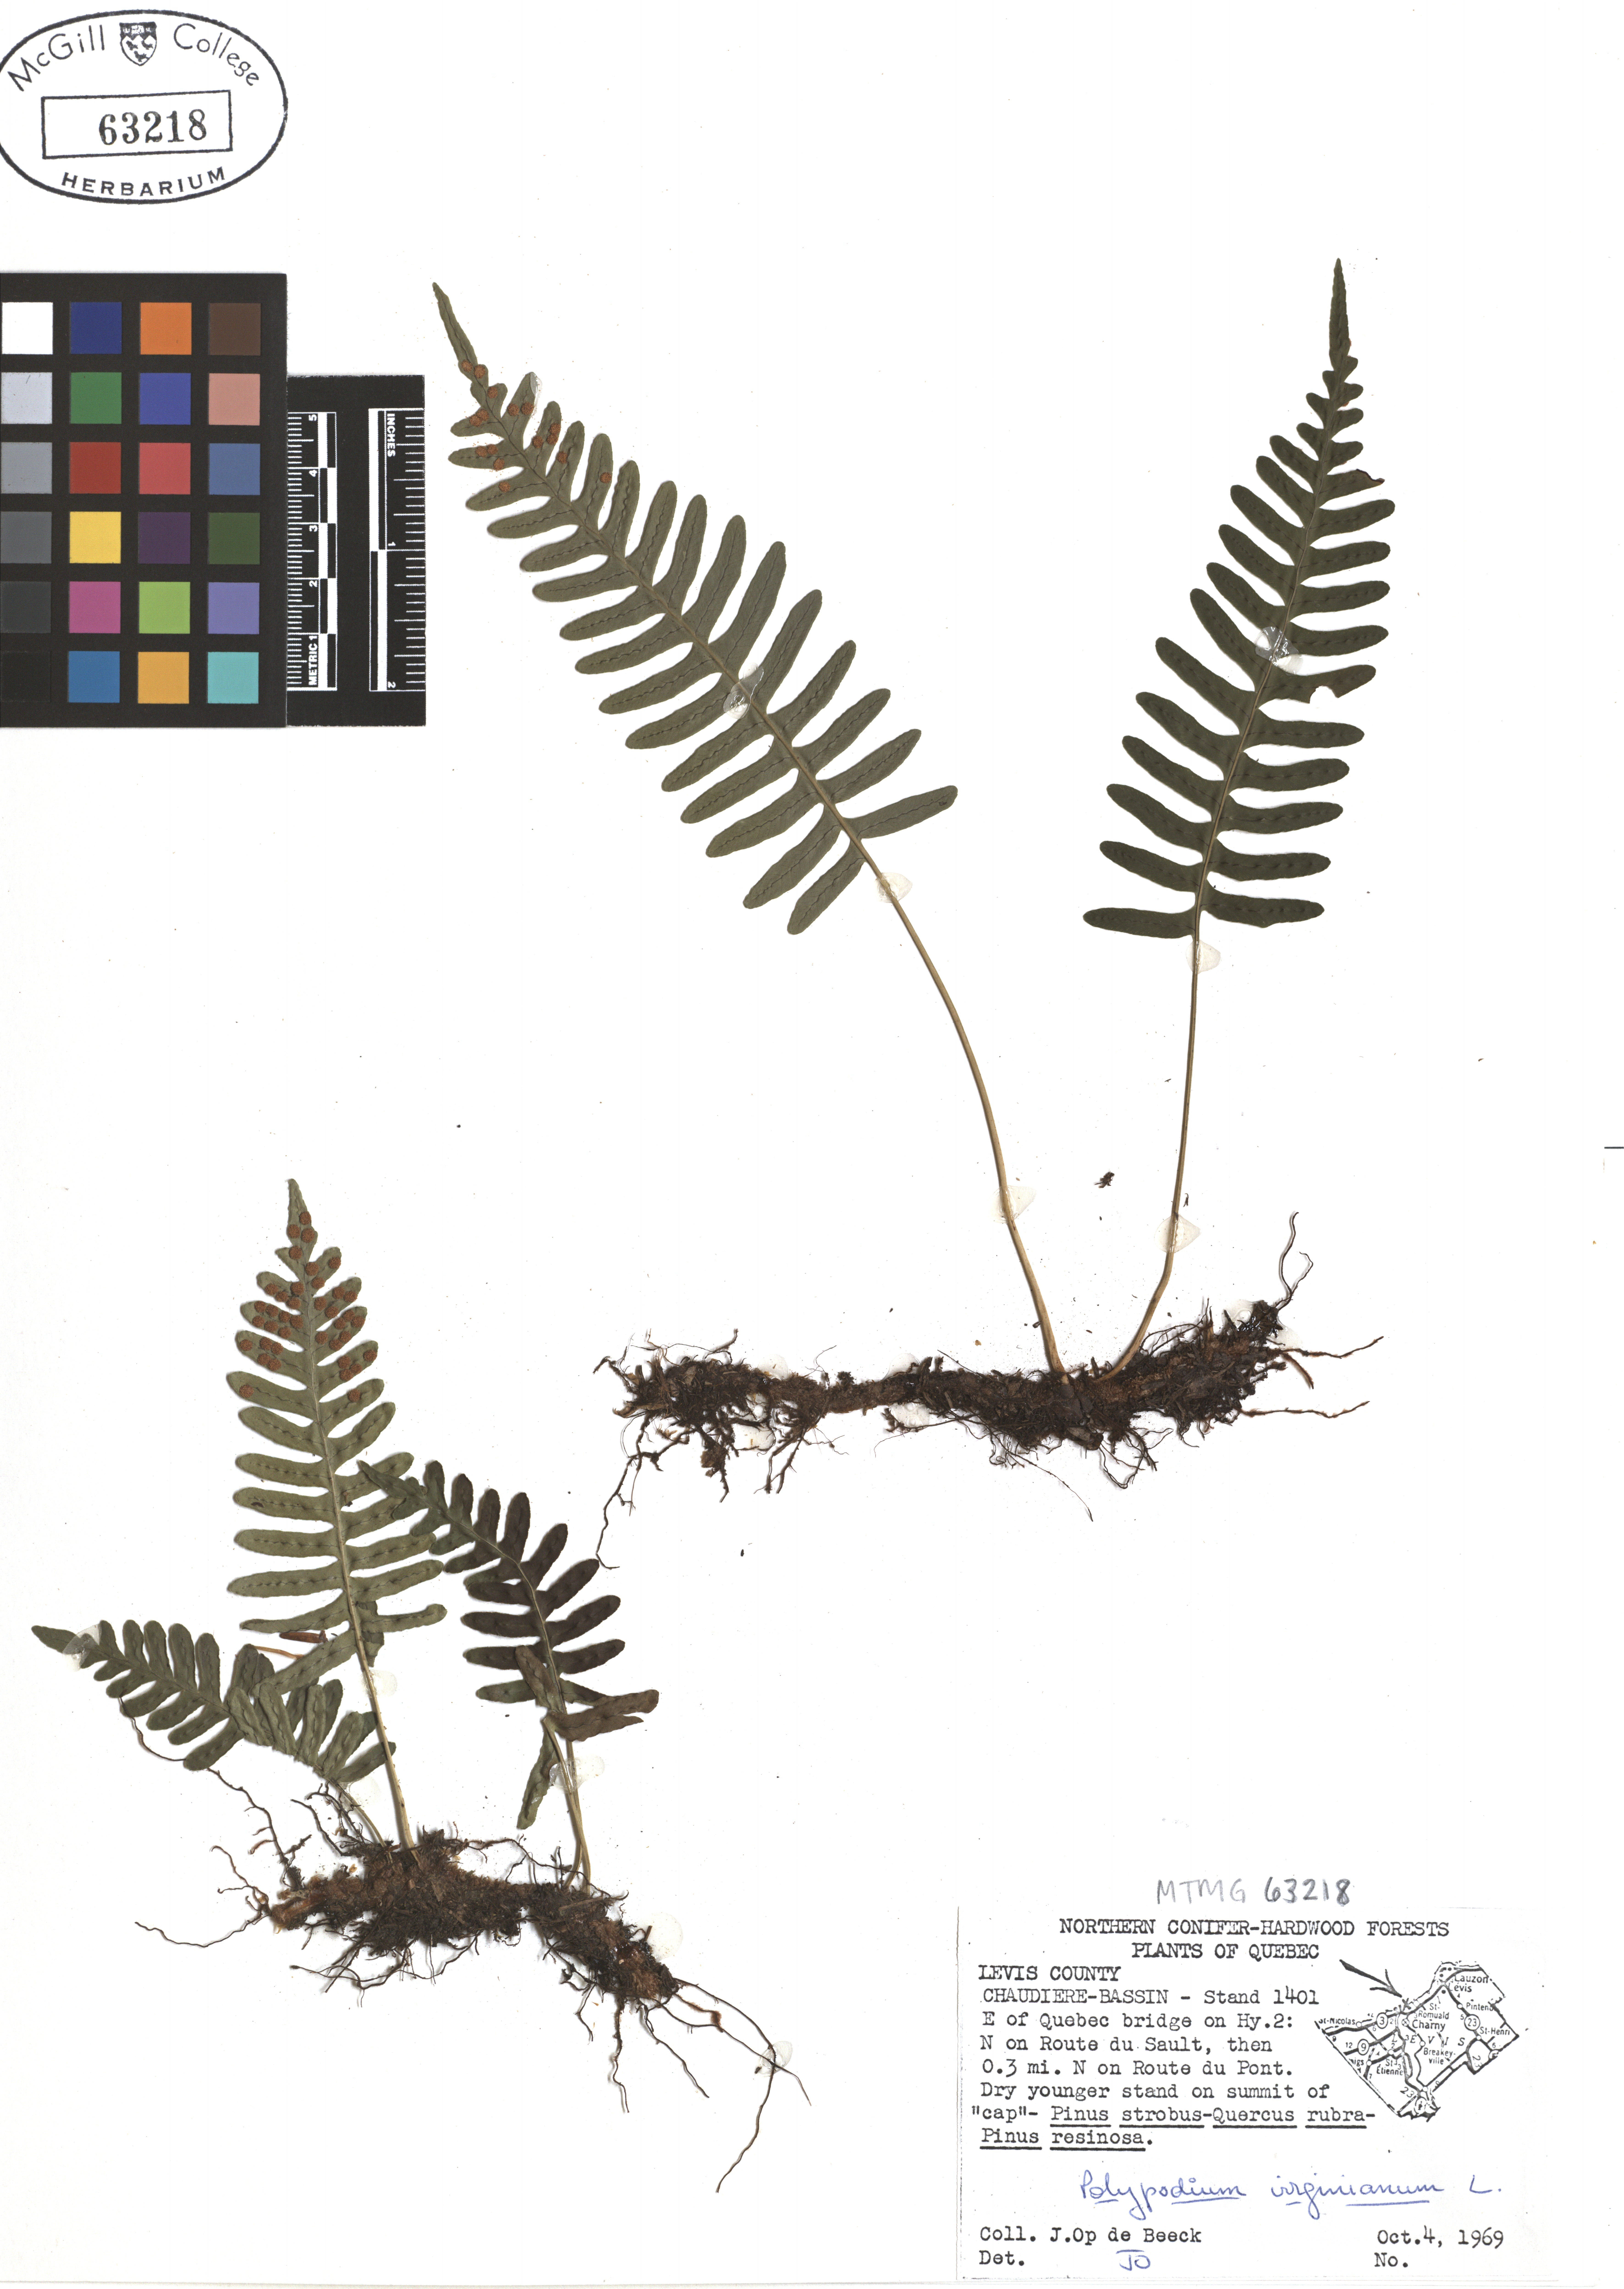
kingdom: Plantae
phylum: Tracheophyta
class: Polypodiopsida
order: Polypodiales
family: Polypodiaceae
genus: Polypodium
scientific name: Polypodium virginianum
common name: American wall fern
